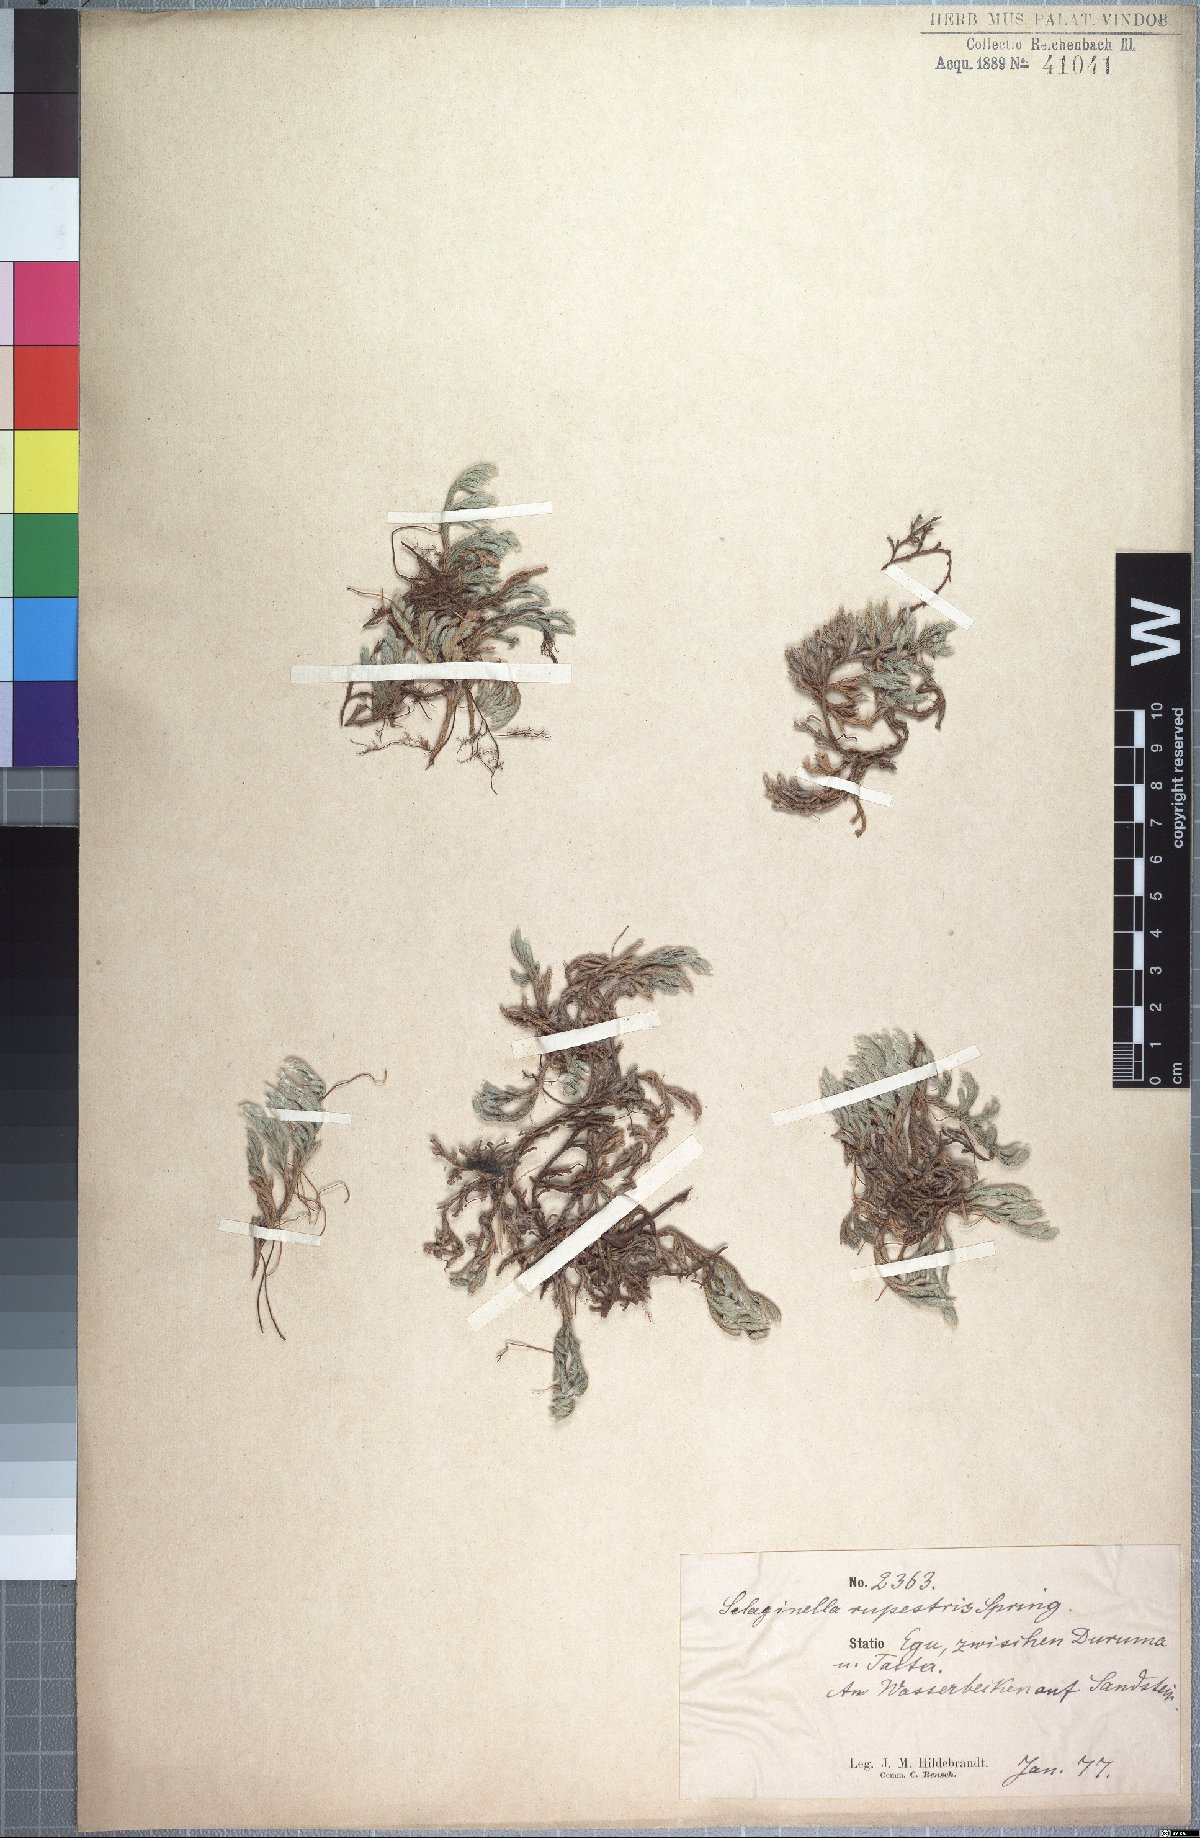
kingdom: Plantae
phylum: Tracheophyta
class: Lycopodiopsida
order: Selaginellales
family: Selaginellaceae
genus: Selaginella
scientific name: Selaginella dregei
